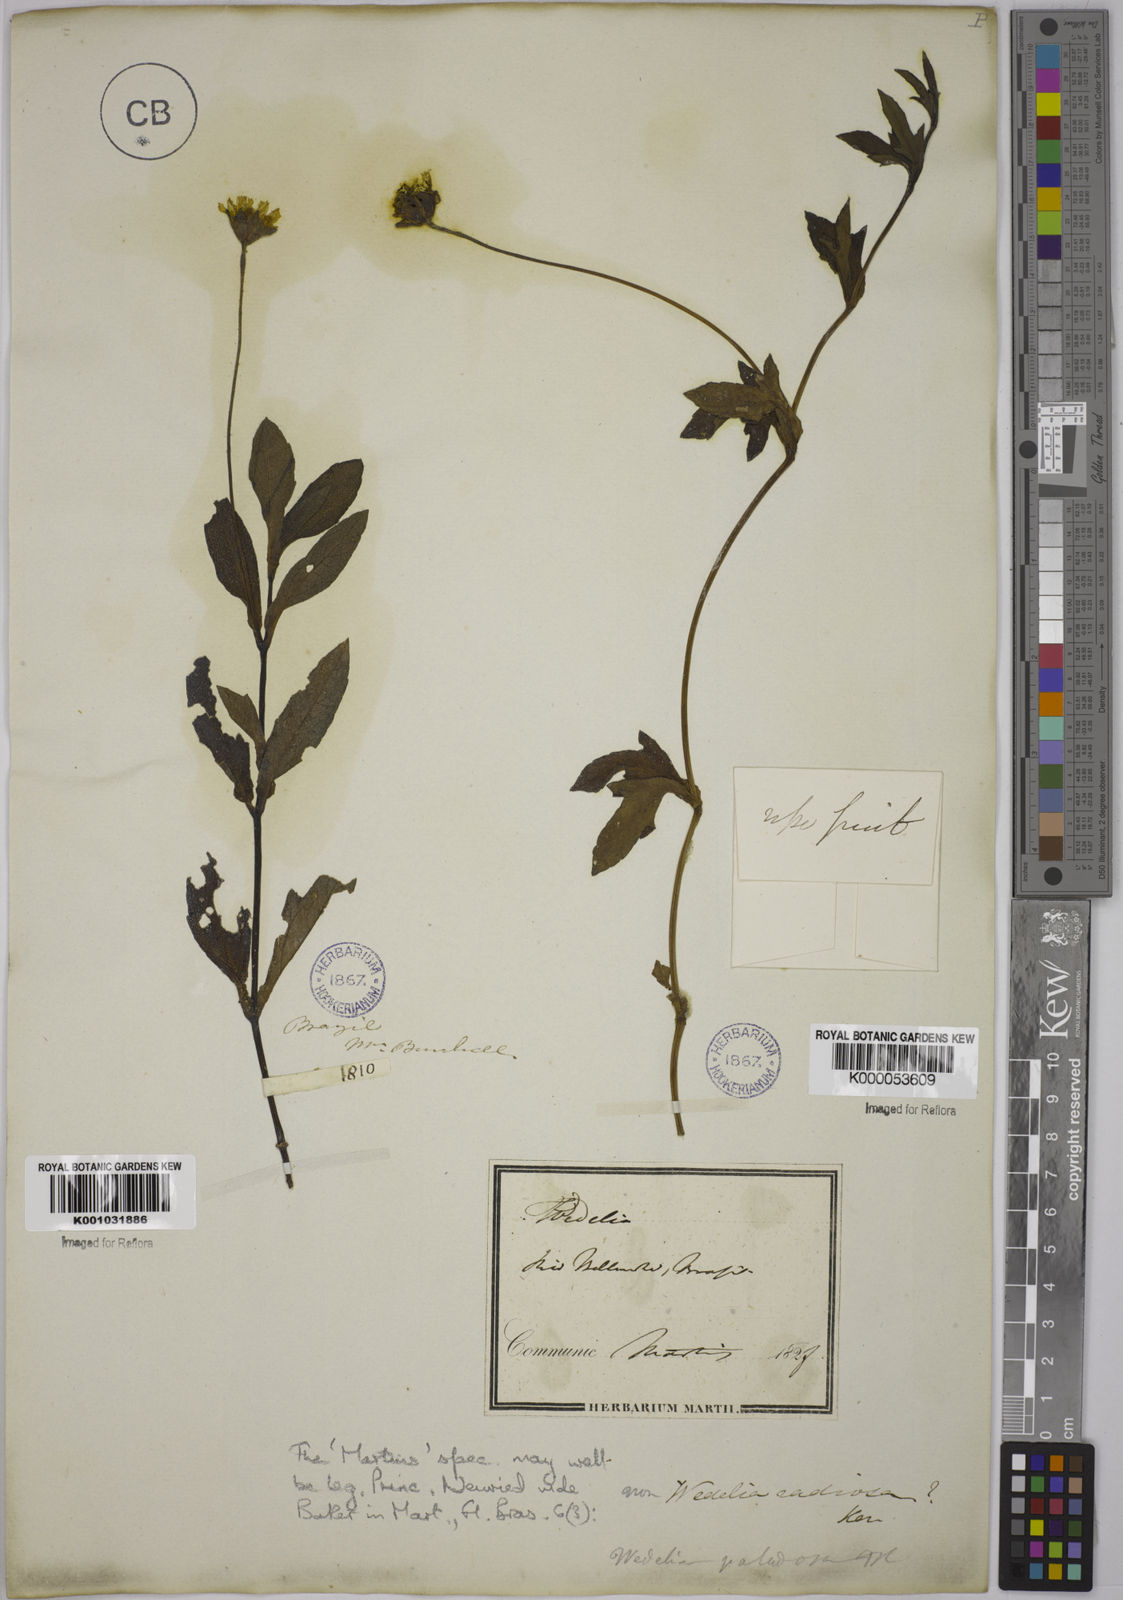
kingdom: Plantae
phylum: Tracheophyta
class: Magnoliopsida
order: Asterales
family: Asteraceae
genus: Sphagneticola
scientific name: Sphagneticola trilobata
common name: Bay biscayne creeping-oxeye
